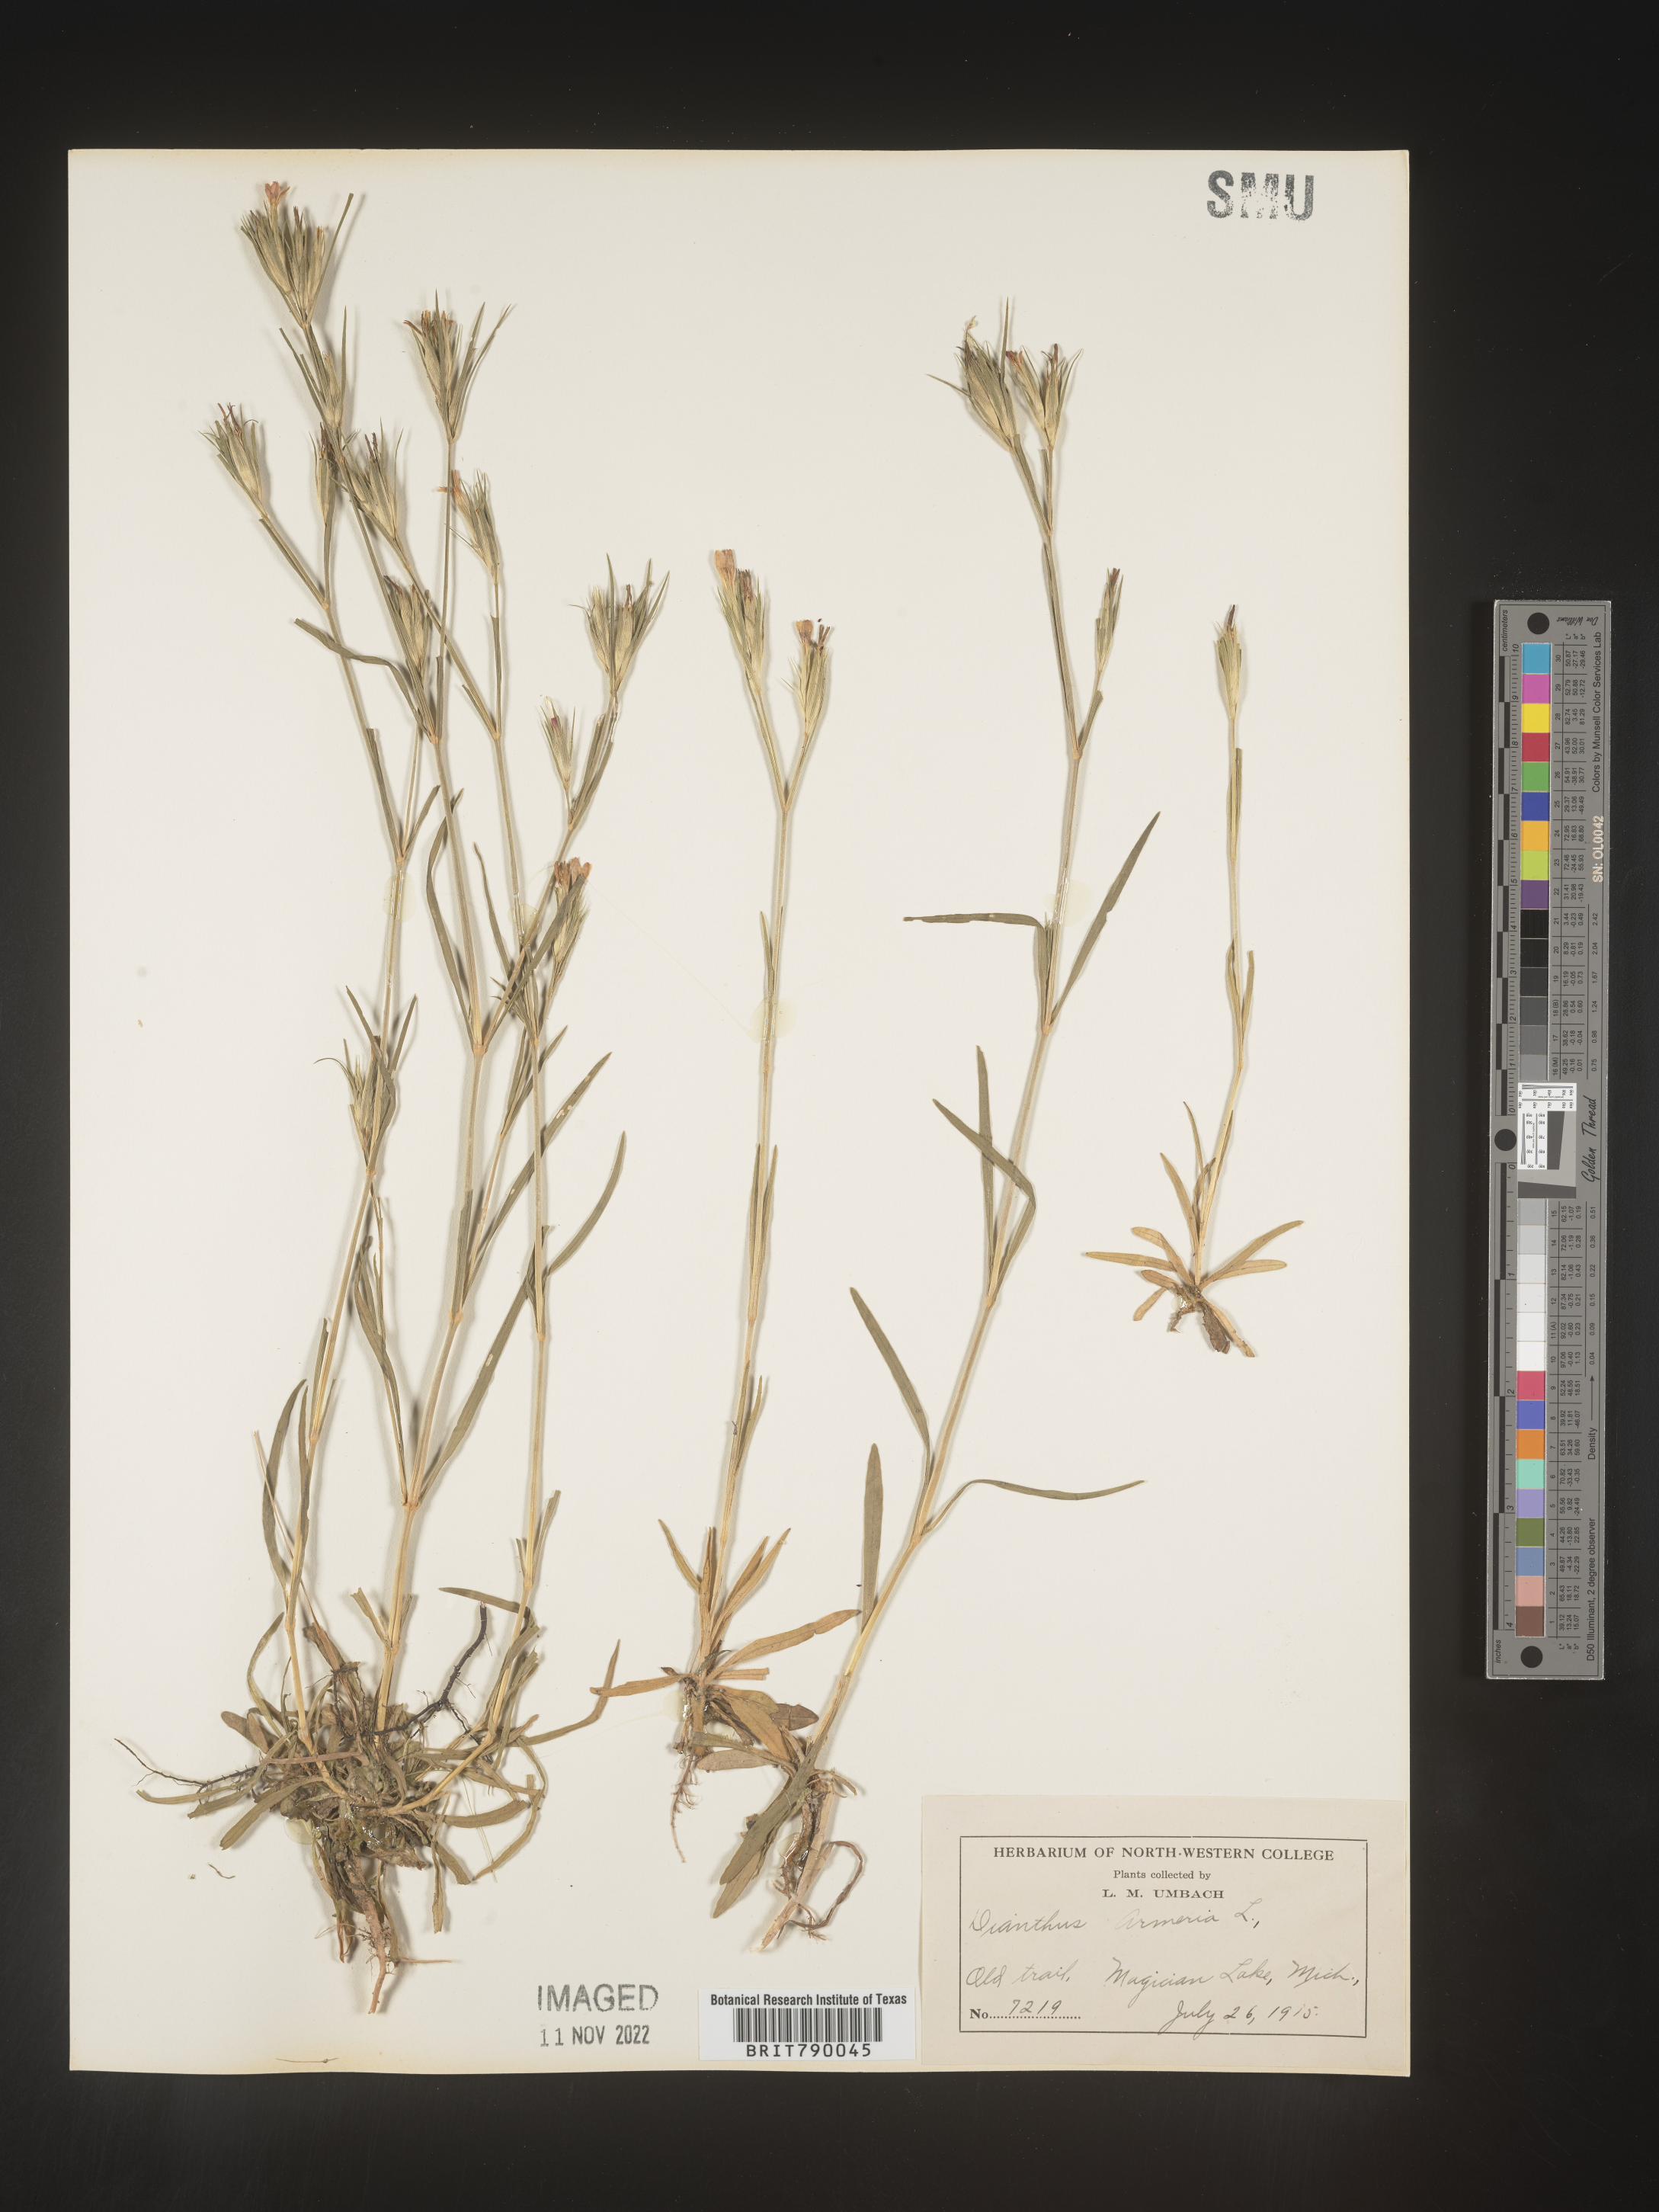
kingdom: Plantae
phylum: Tracheophyta
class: Magnoliopsida
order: Caryophyllales
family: Caryophyllaceae
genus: Dianthus
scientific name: Dianthus armeria
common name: Deptford pink
